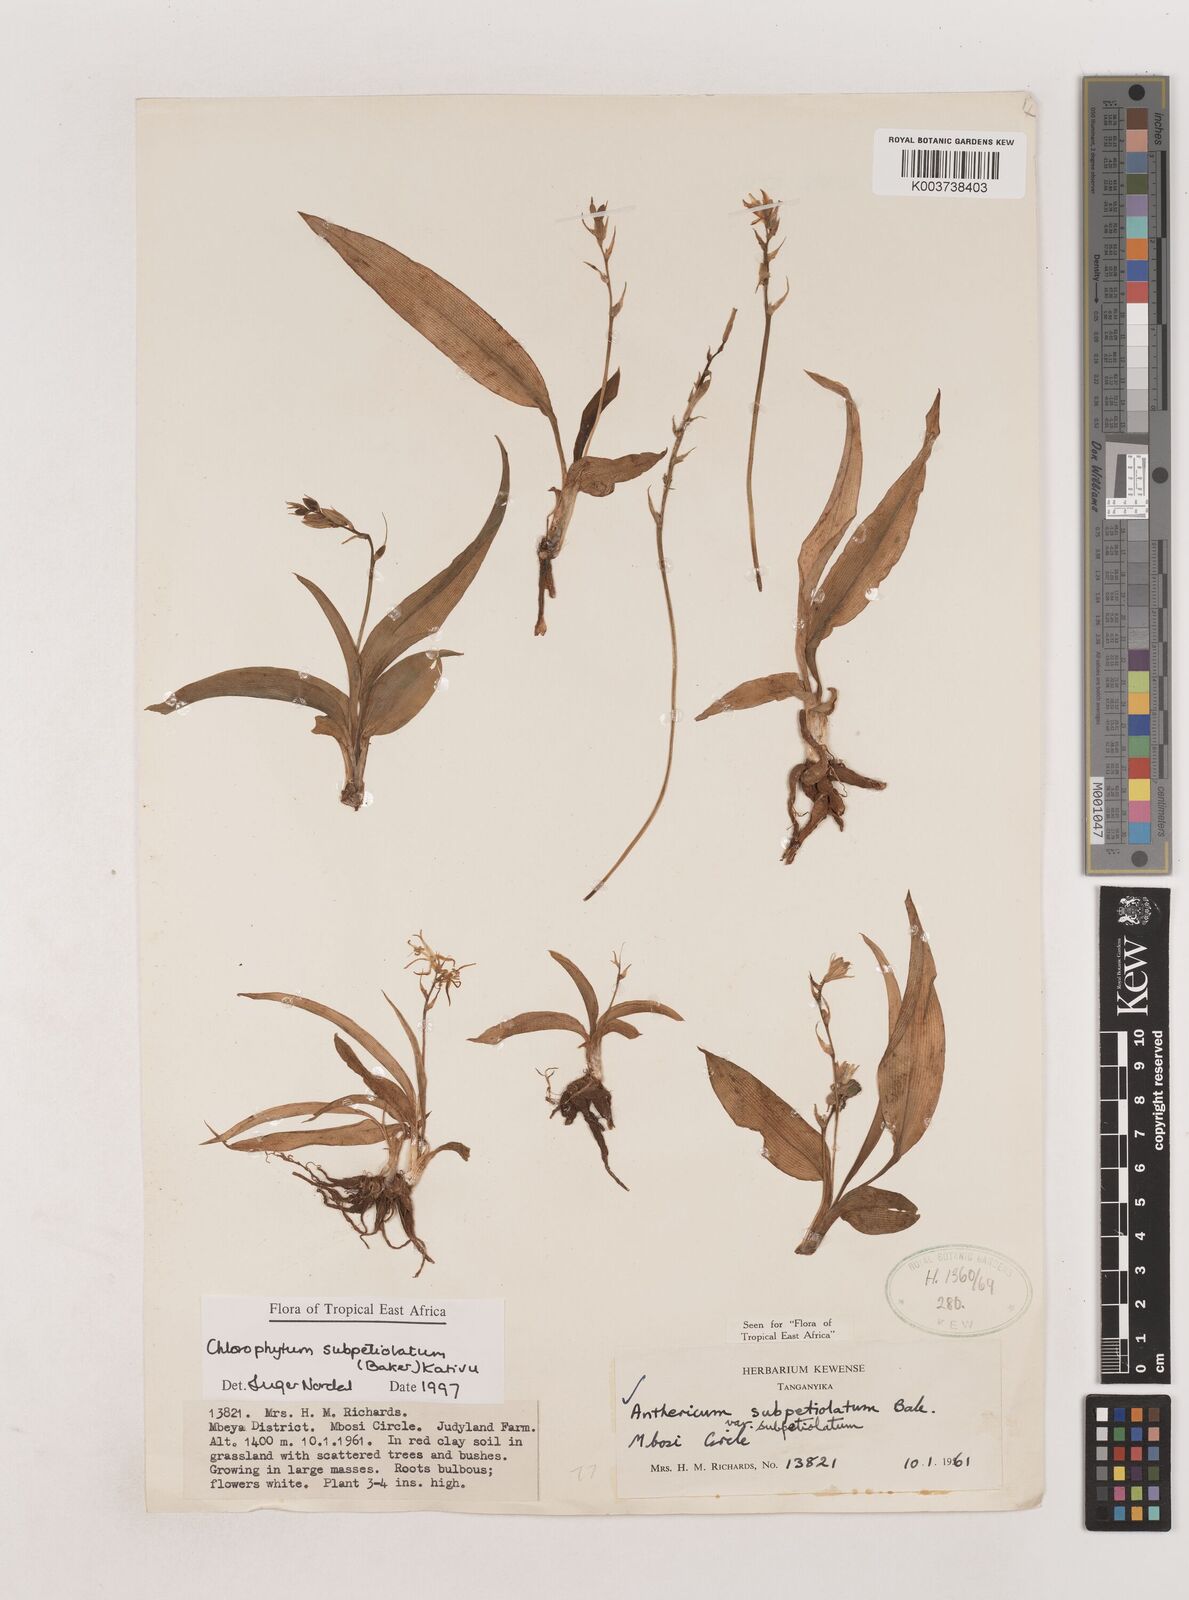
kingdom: Plantae
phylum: Tracheophyta
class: Liliopsida
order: Asparagales
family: Asparagaceae
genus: Chlorophytum
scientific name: Chlorophytum subpetiolatum
